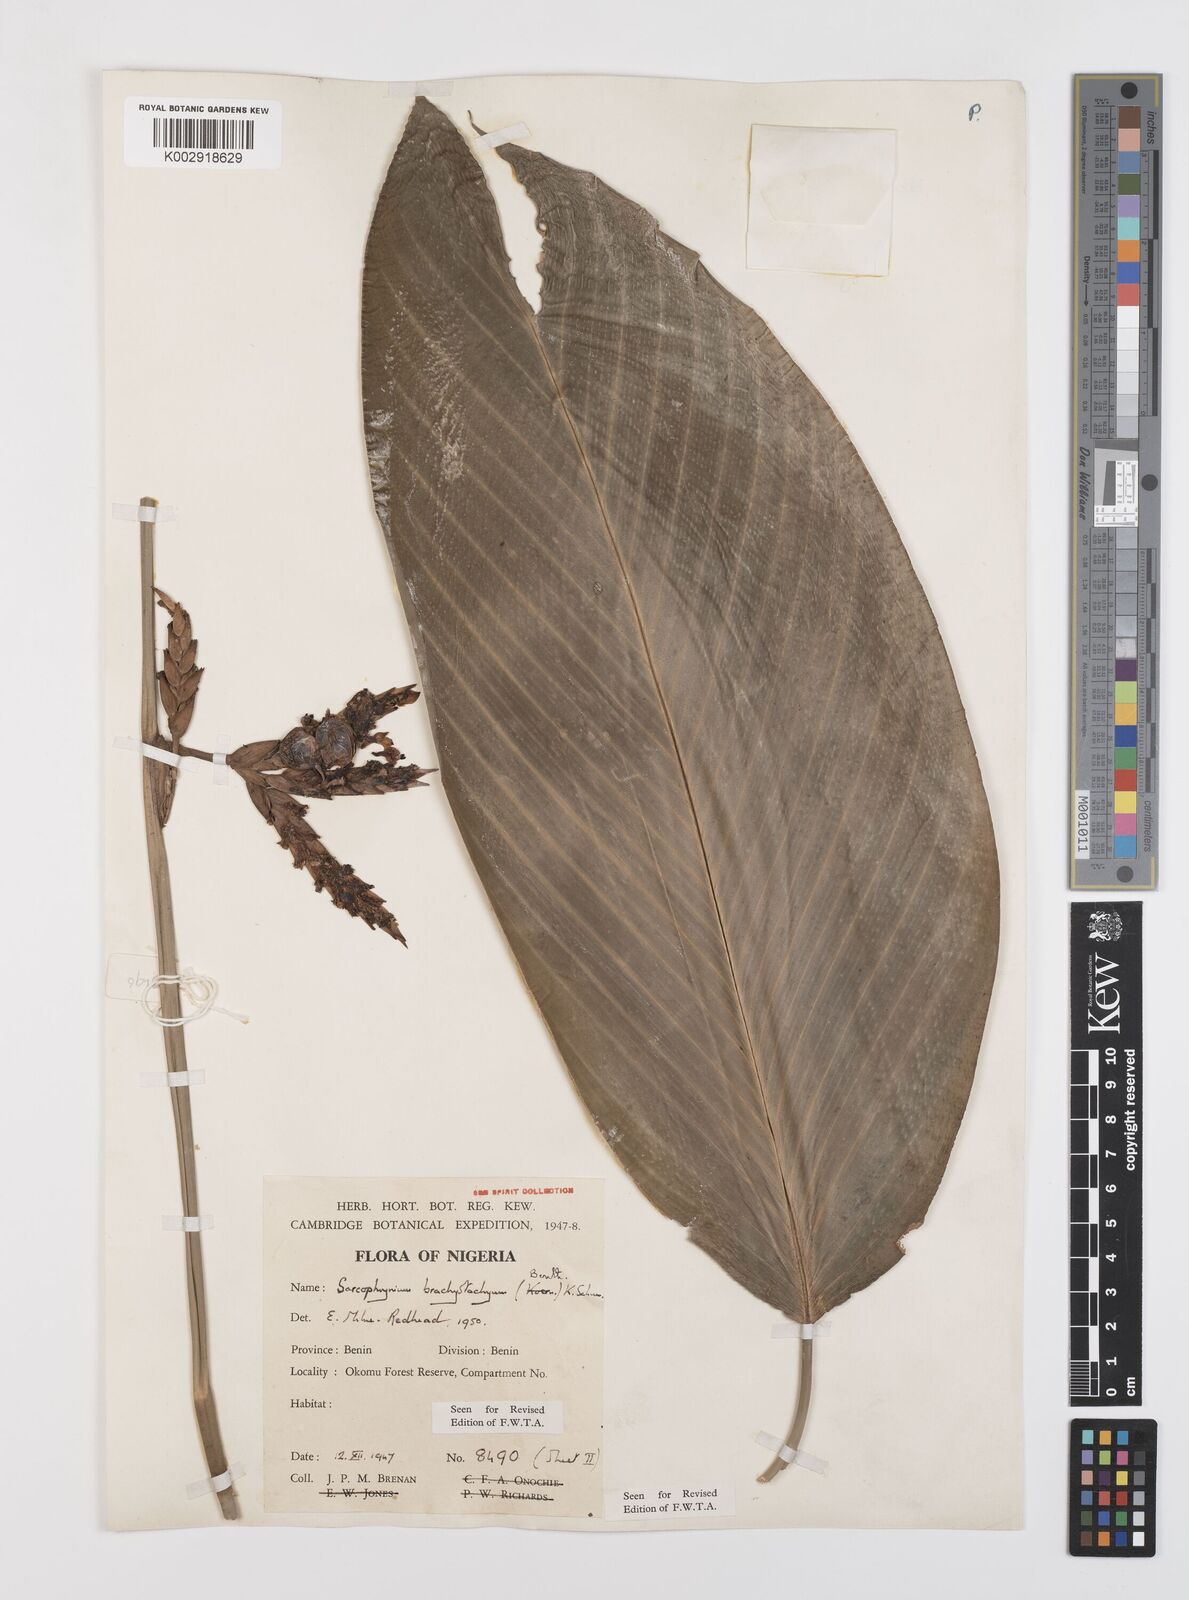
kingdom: Plantae
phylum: Tracheophyta
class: Liliopsida
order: Zingiberales
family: Marantaceae
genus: Sarcophrynium
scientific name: Sarcophrynium brachystachyum
